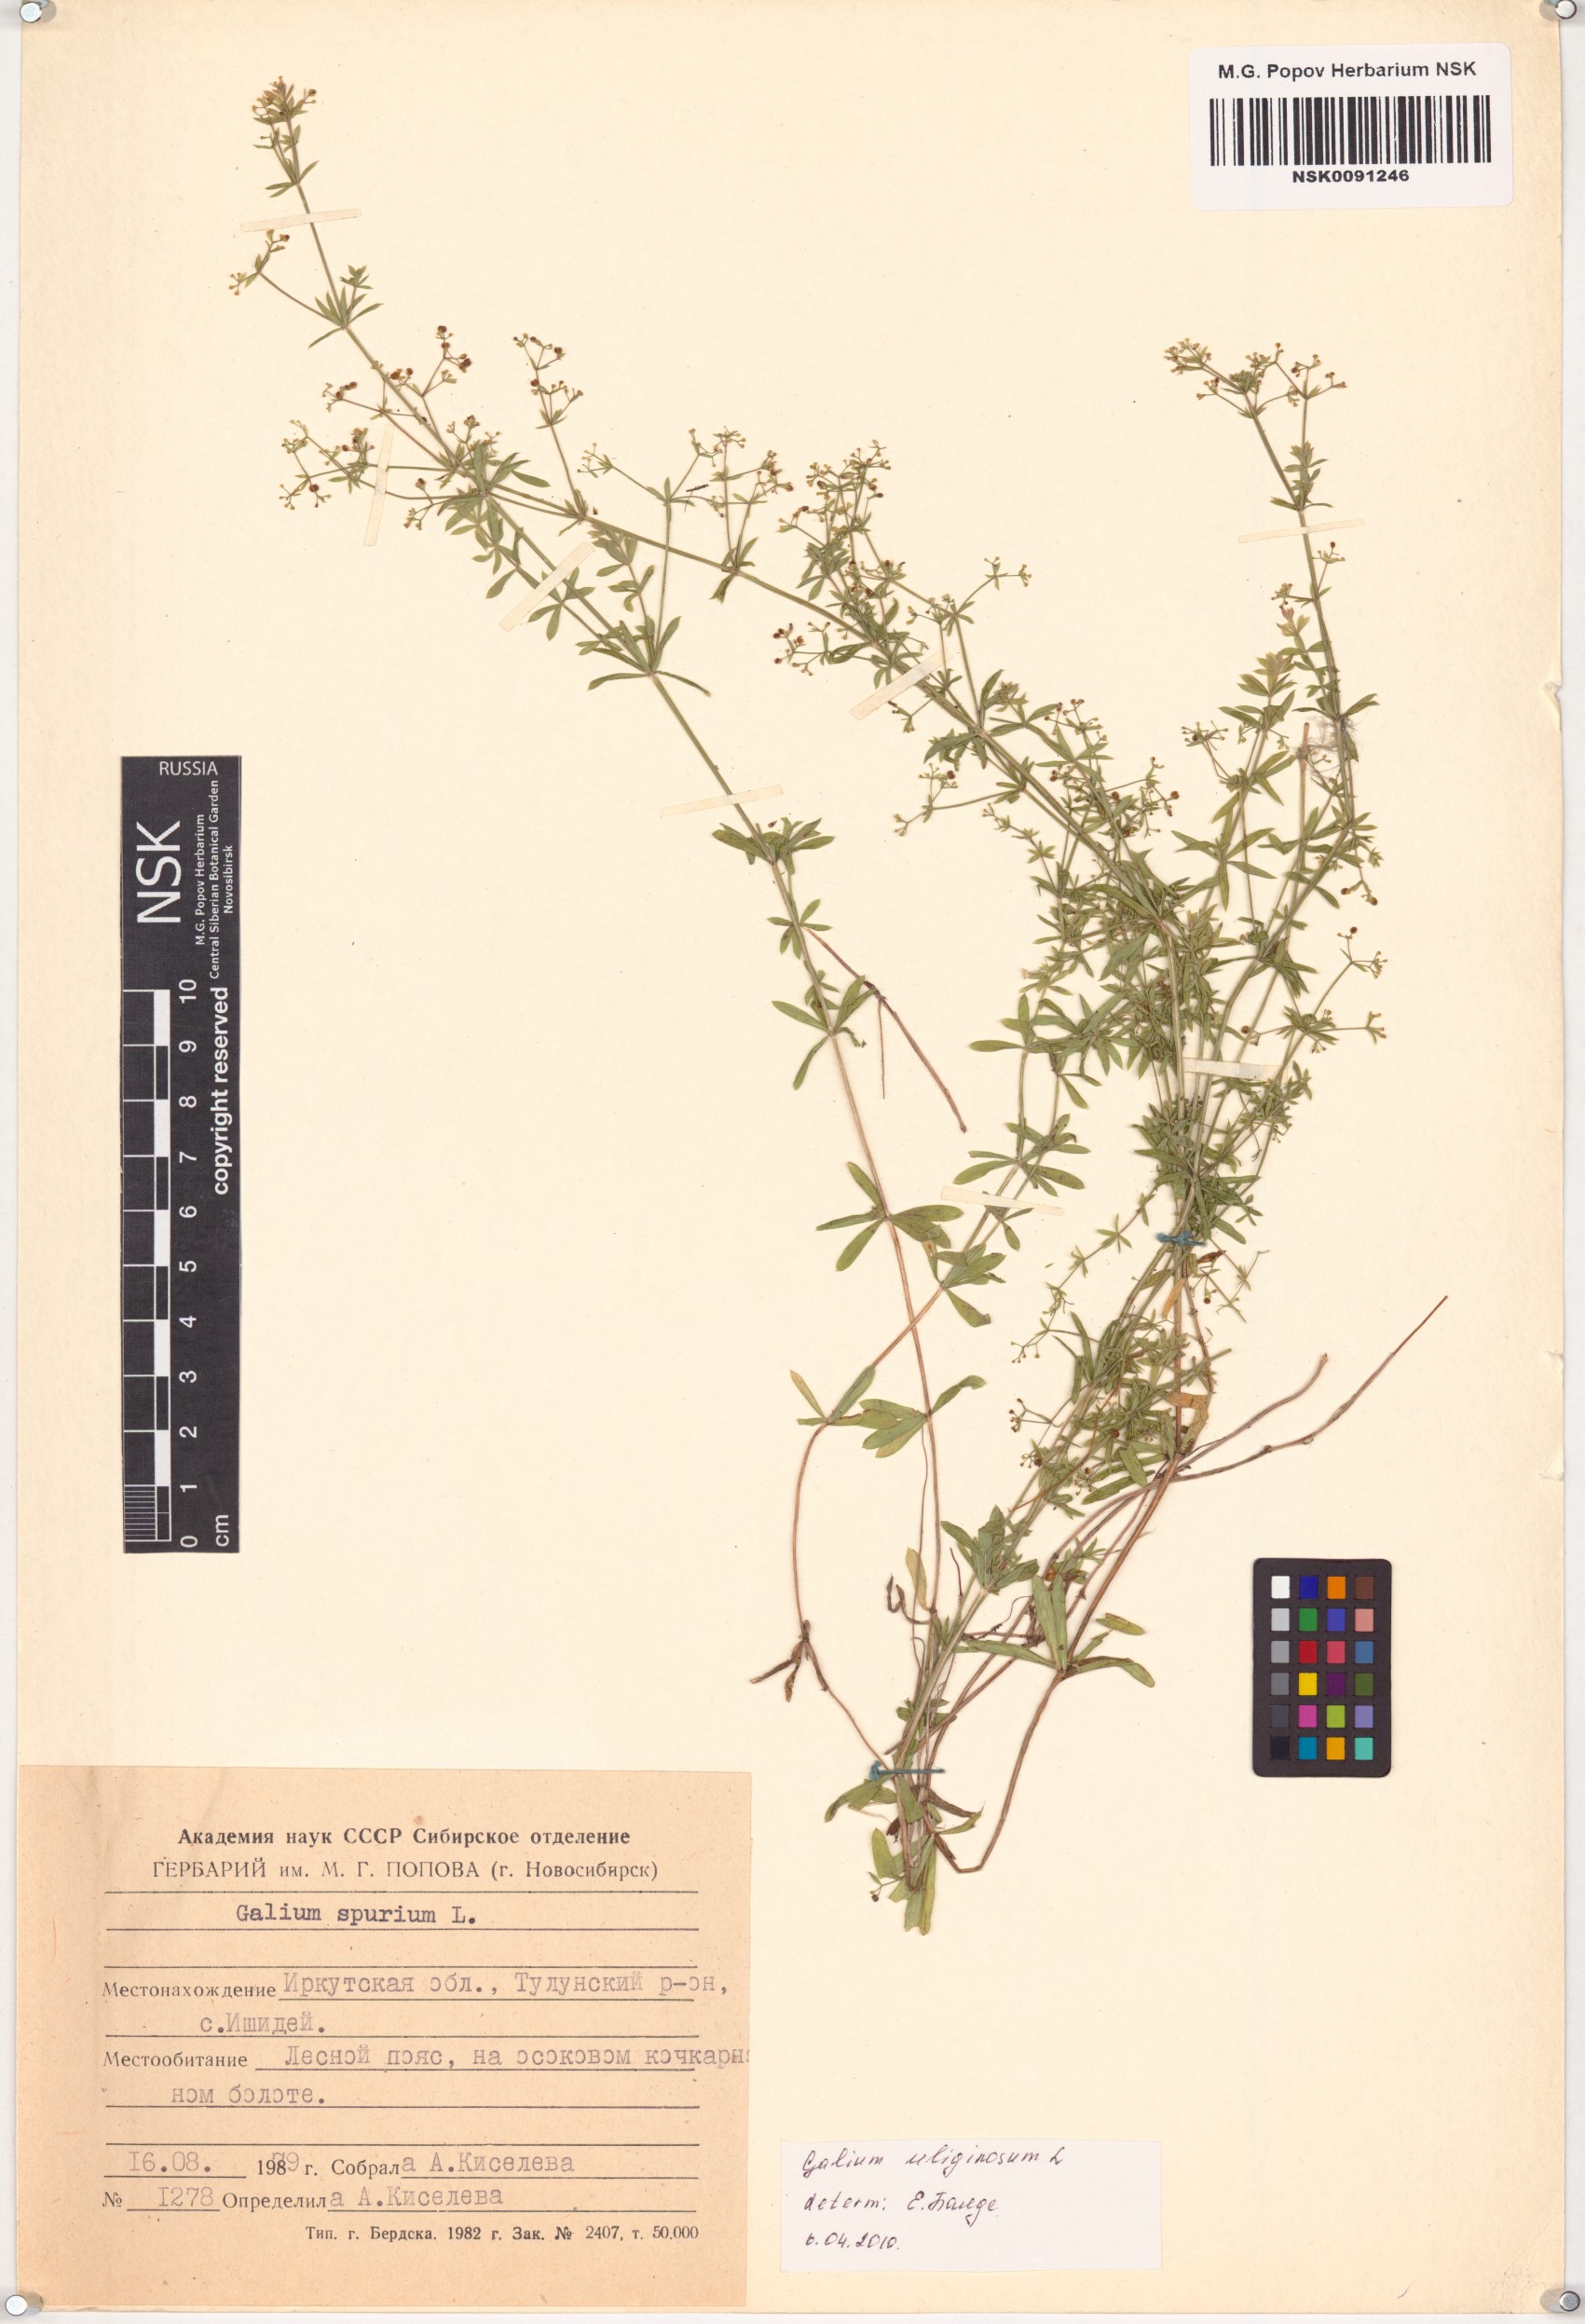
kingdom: Plantae
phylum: Tracheophyta
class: Magnoliopsida
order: Gentianales
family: Rubiaceae
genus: Galium
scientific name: Galium uliginosum
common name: Fen bedstraw
